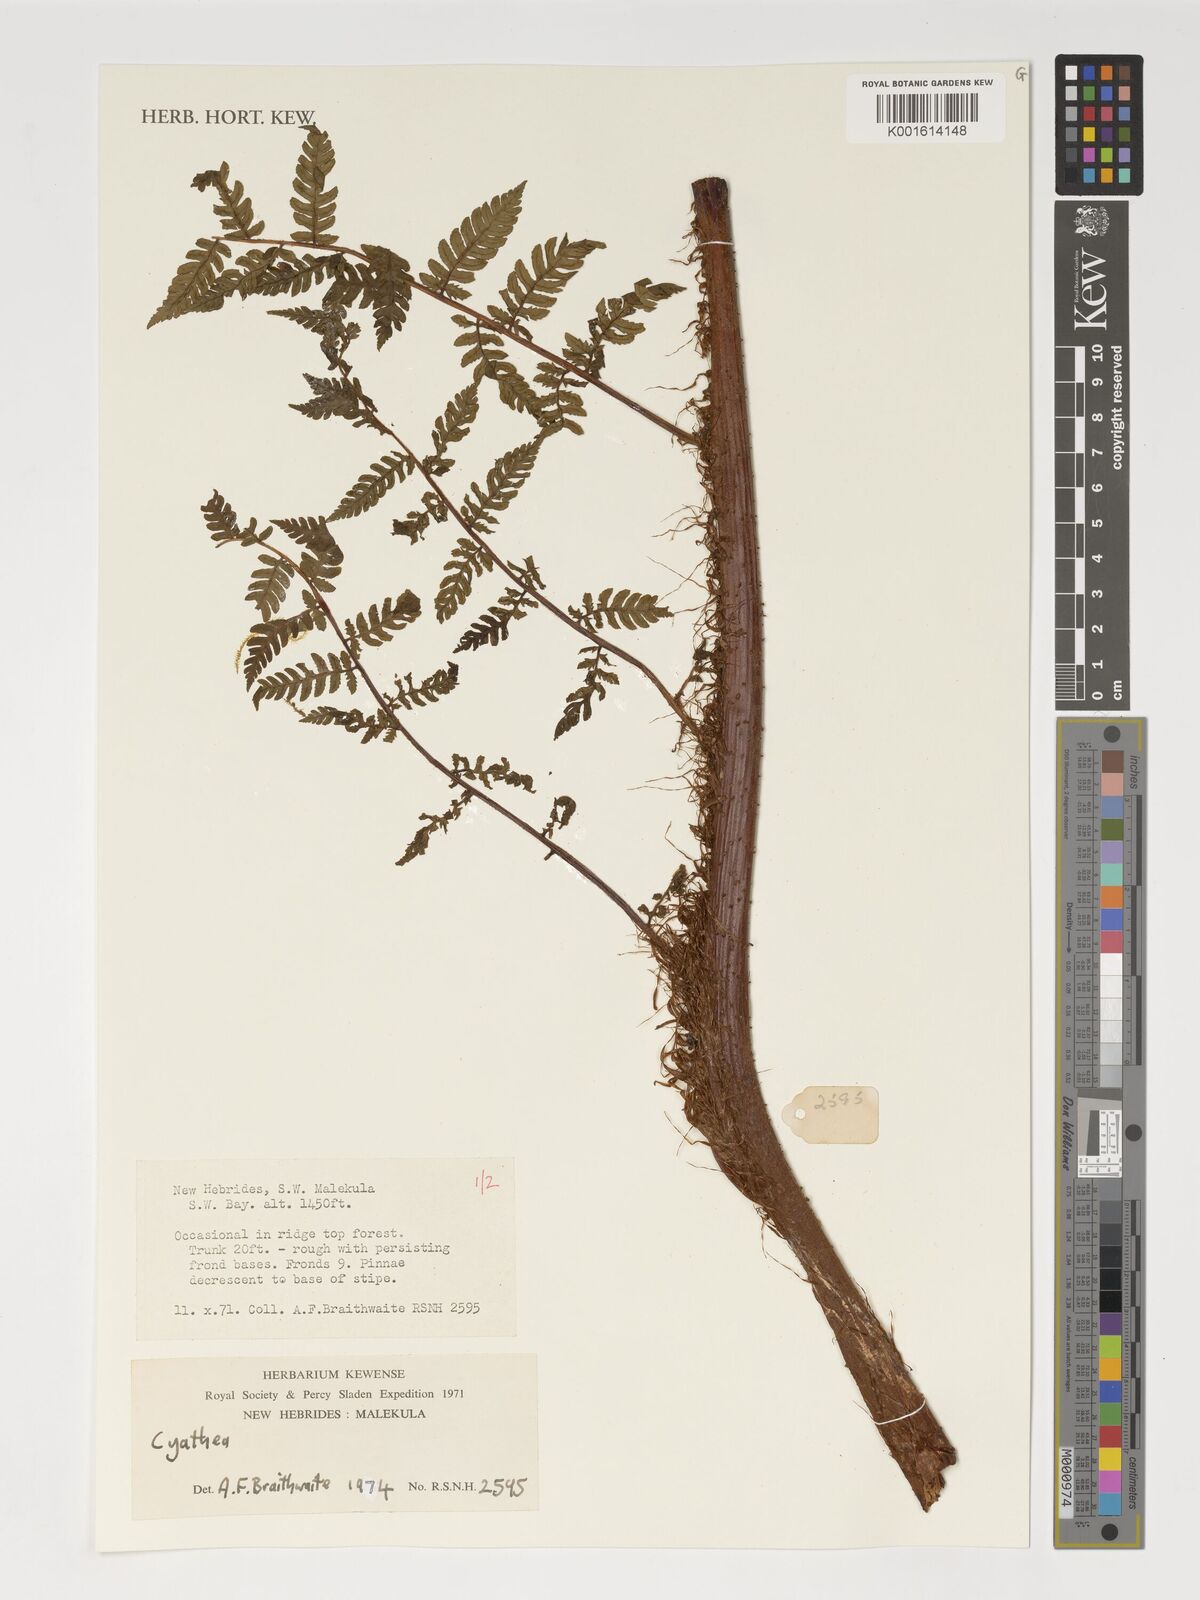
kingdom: Plantae
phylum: Tracheophyta
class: Polypodiopsida
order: Cyatheales
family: Cyatheaceae
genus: Cyathea
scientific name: Cyathea
